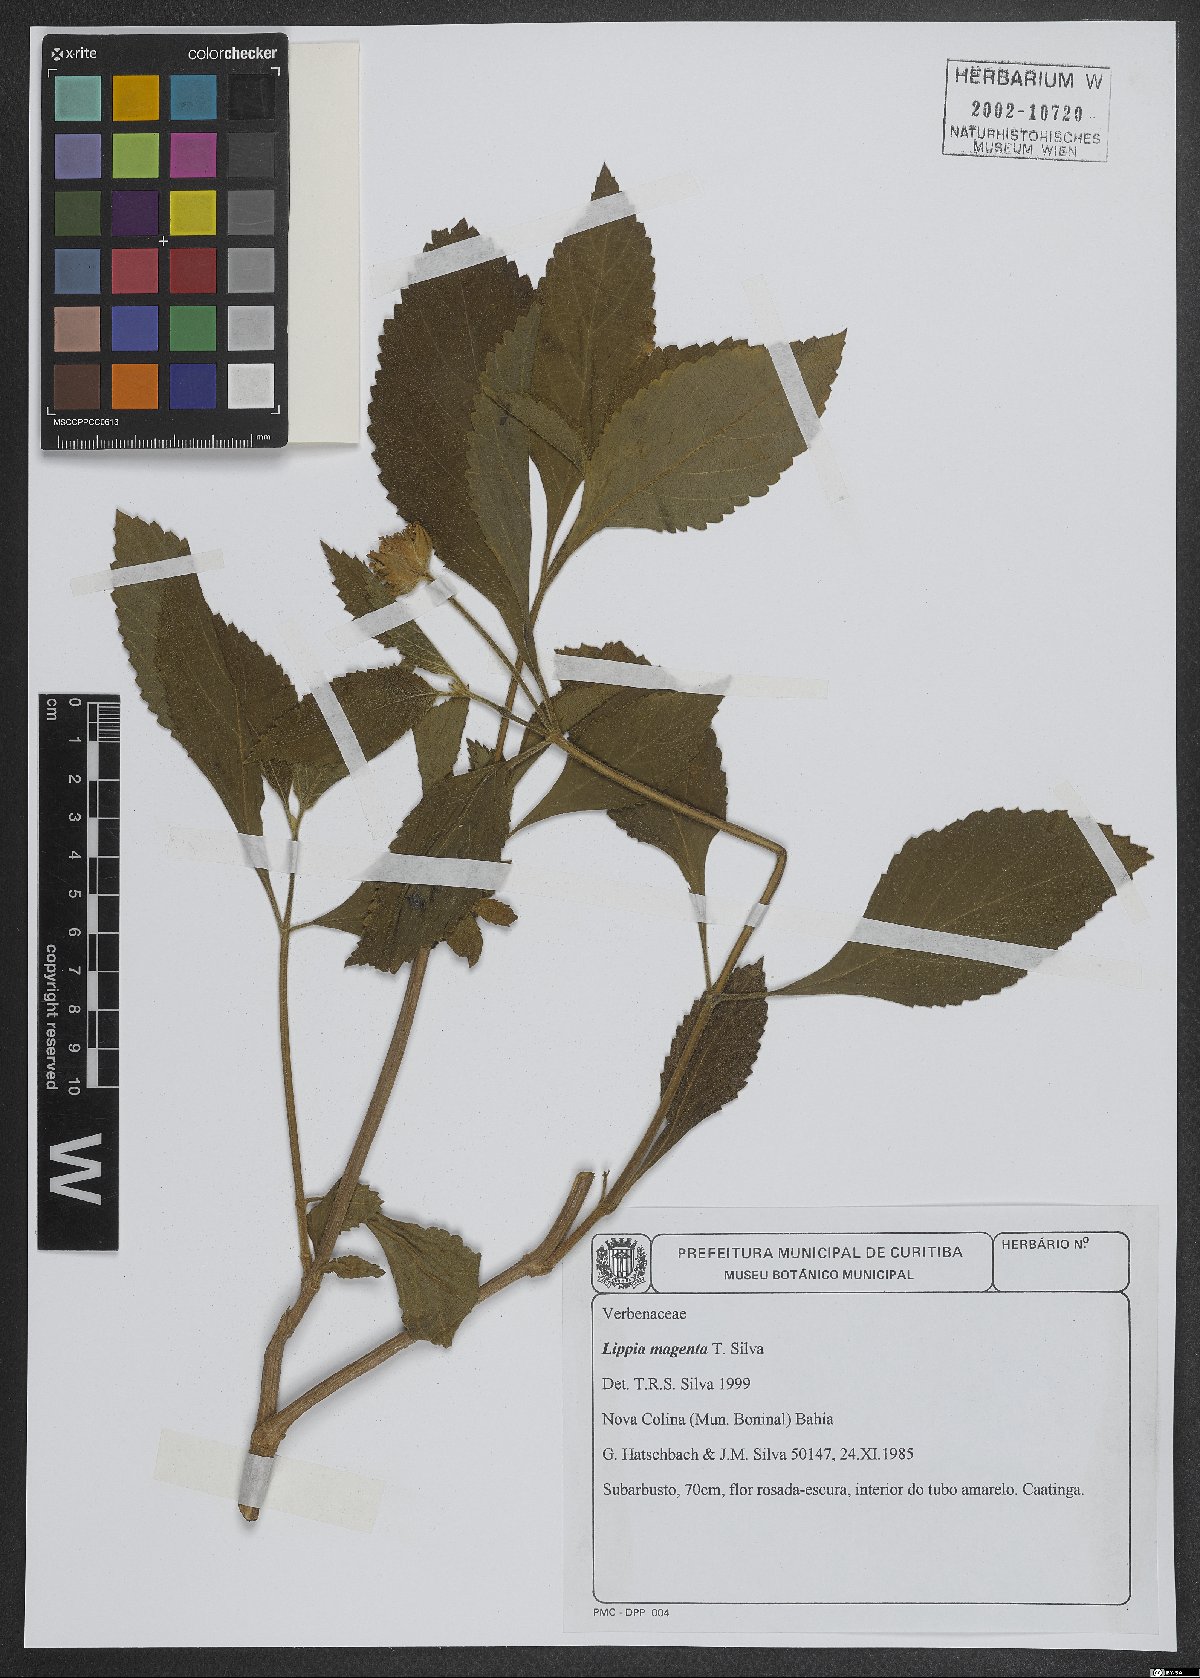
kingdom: Plantae
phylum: Tracheophyta
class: Magnoliopsida
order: Lamiales
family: Verbenaceae
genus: Lippia
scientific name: Lippia magentea
